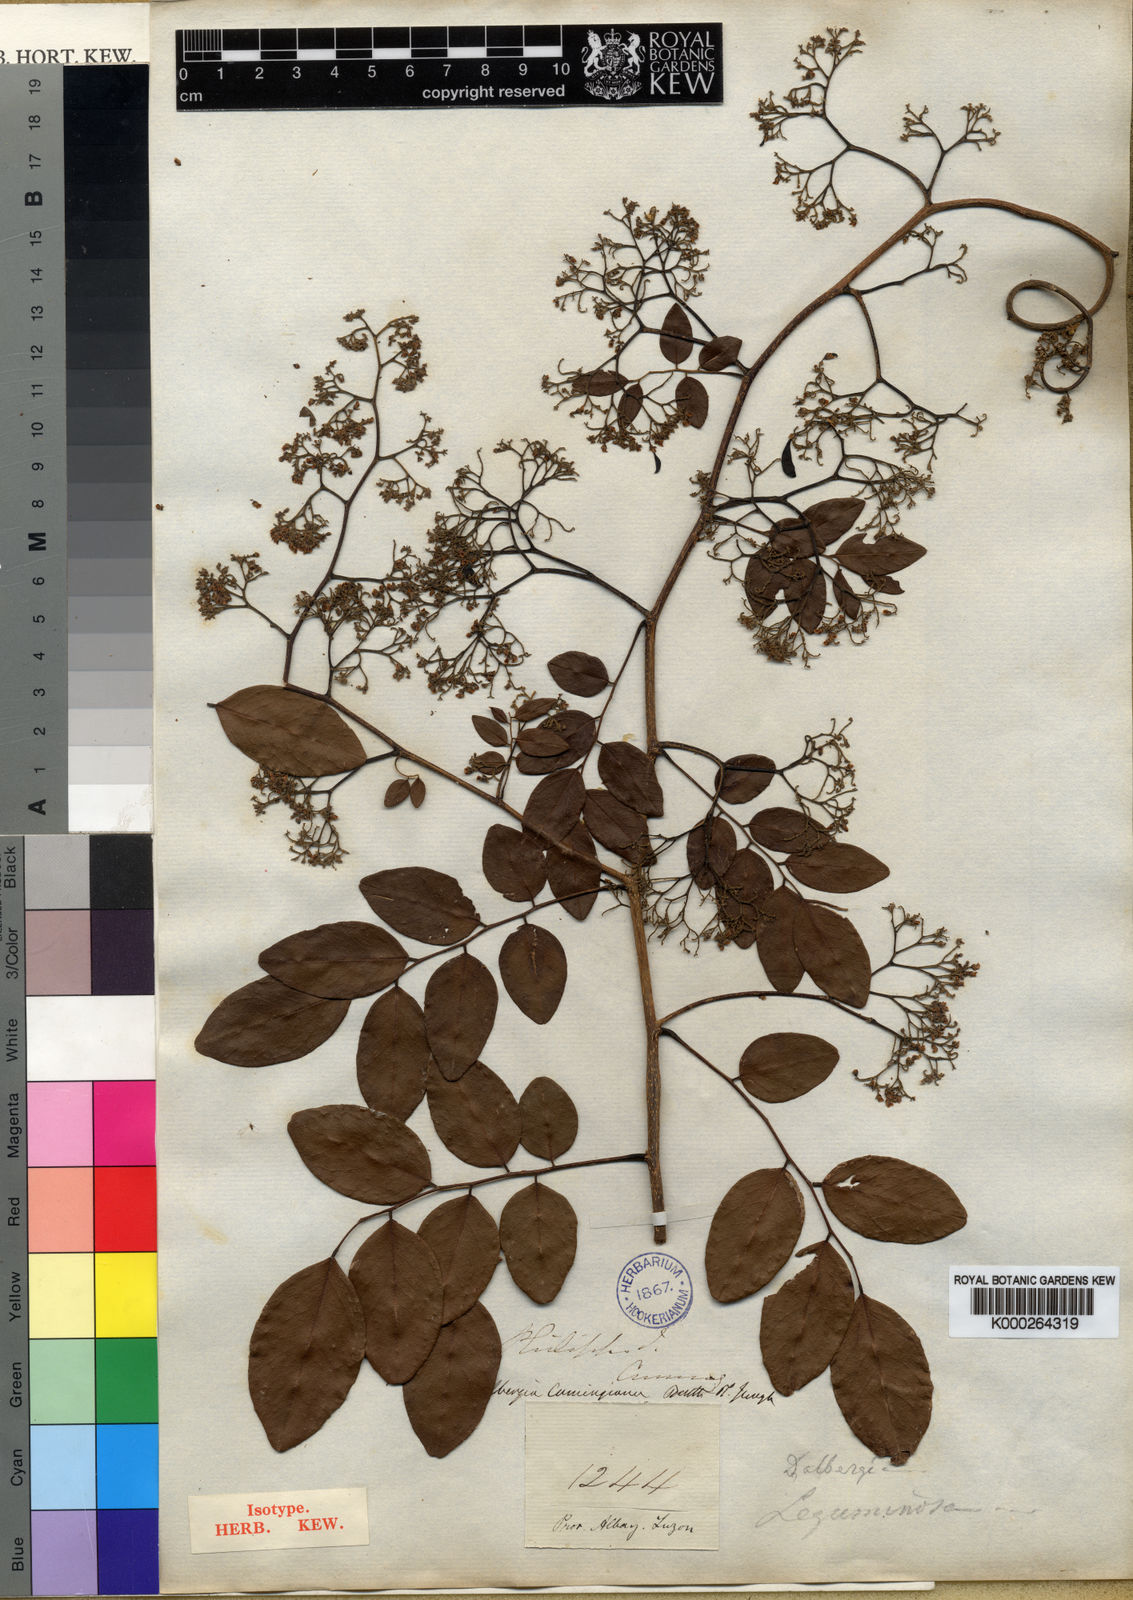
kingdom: Plantae
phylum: Tracheophyta
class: Magnoliopsida
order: Fabales
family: Fabaceae
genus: Dalbergia
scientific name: Dalbergia cumingiana
